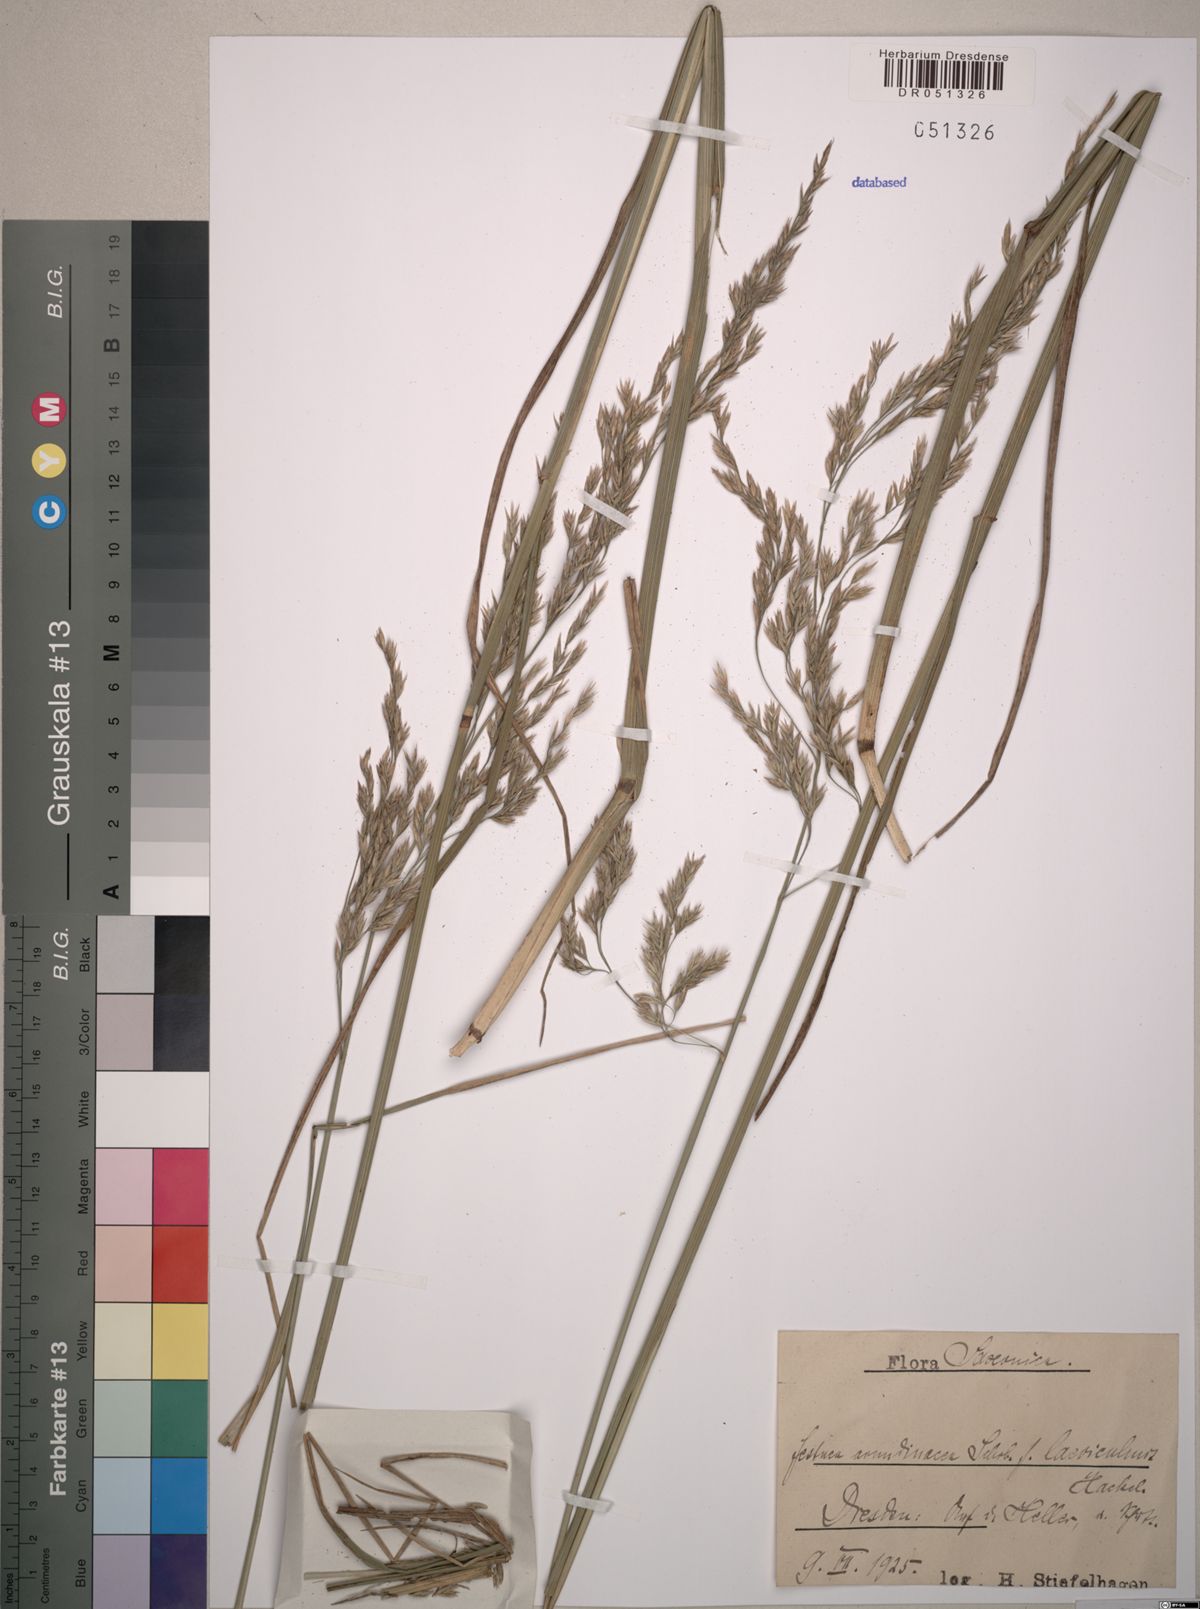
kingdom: Plantae
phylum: Tracheophyta
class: Liliopsida
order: Poales
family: Poaceae
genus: Lolium
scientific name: Lolium arundinaceum
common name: Reed fescue
